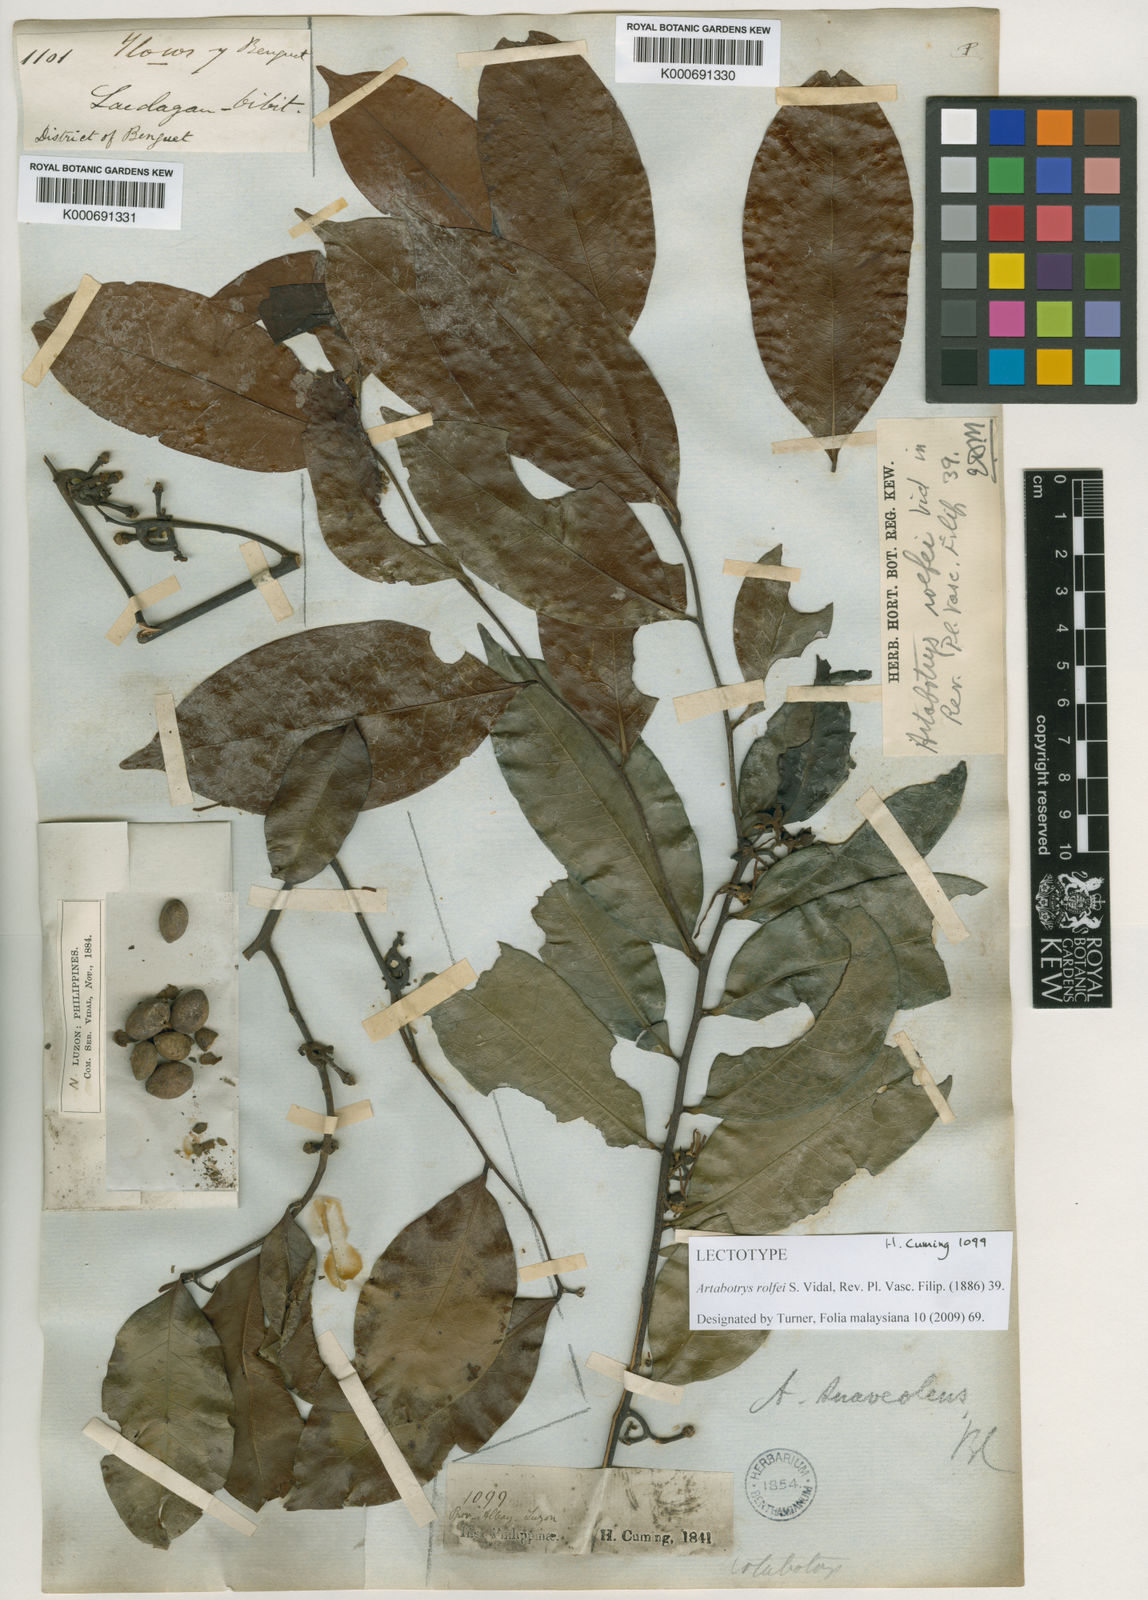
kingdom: Plantae
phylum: Tracheophyta
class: Magnoliopsida
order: Magnoliales
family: Annonaceae
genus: Artabotrys
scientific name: Artabotrys suaveolens
